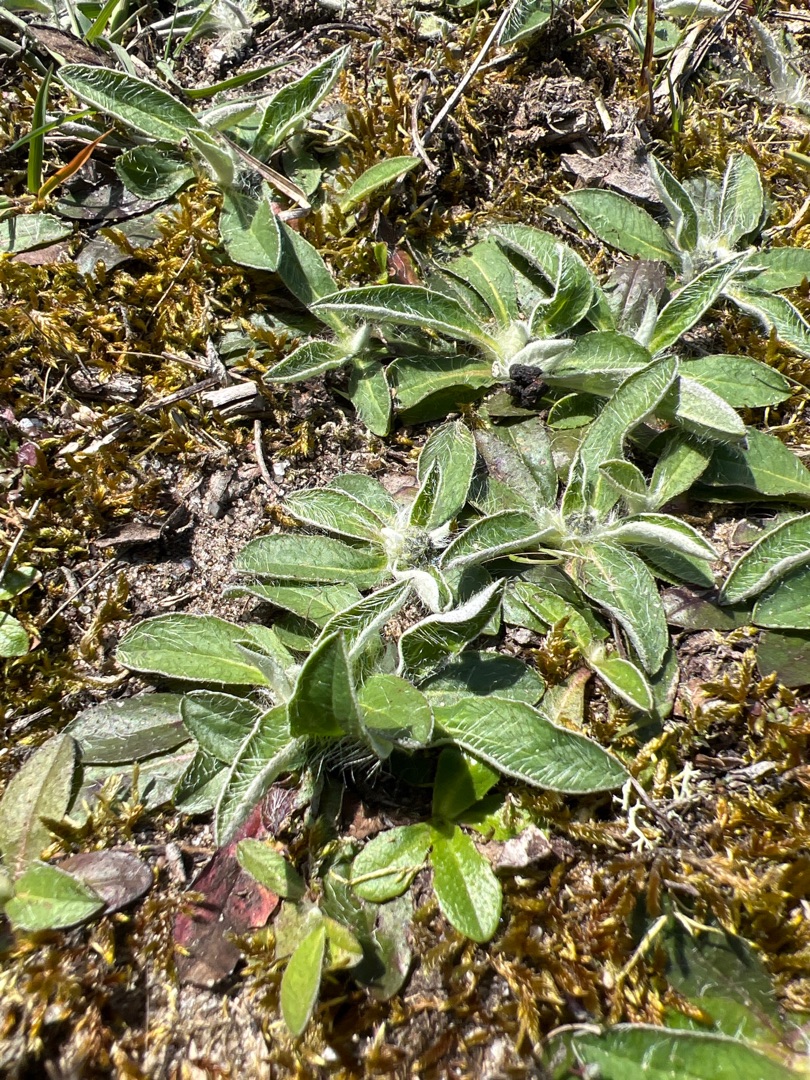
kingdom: Plantae
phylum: Tracheophyta
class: Magnoliopsida
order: Asterales
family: Asteraceae
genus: Pilosella
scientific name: Pilosella officinarum
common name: Håret høgeurt
